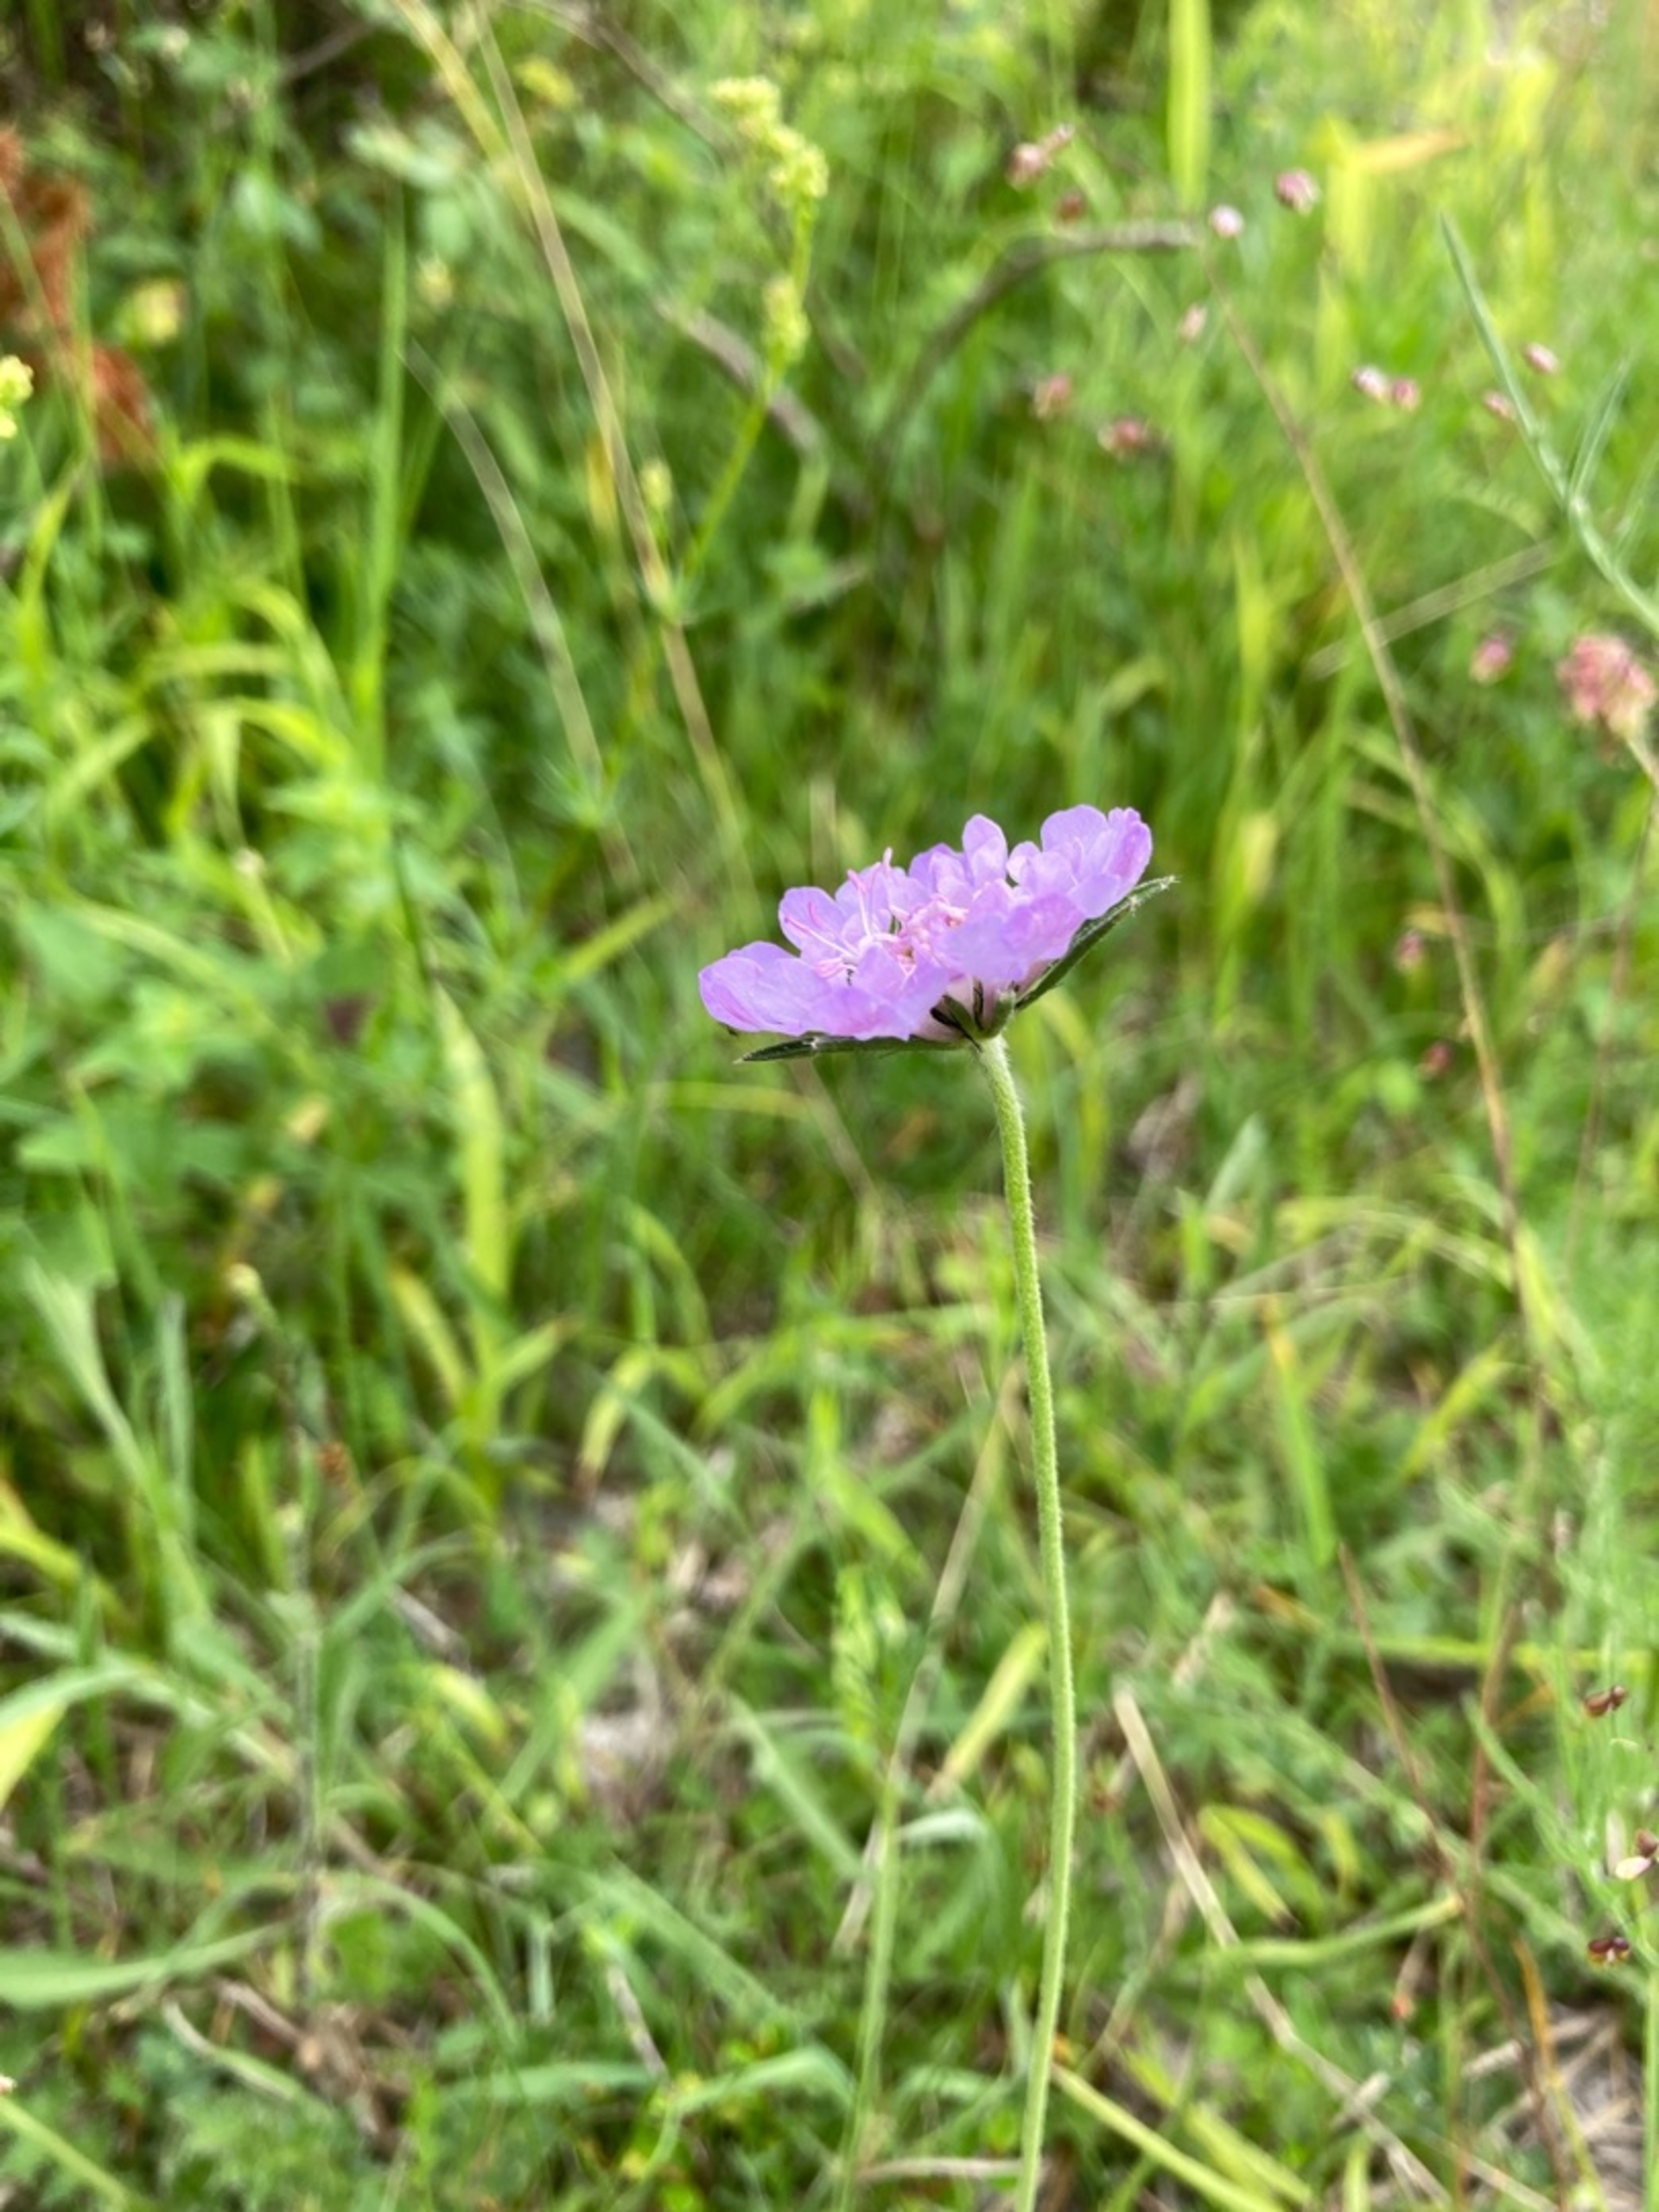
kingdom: Plantae
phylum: Tracheophyta
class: Magnoliopsida
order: Dipsacales
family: Caprifoliaceae
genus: Scabiosa
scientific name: Scabiosa columbaria
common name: Due-skabiose
